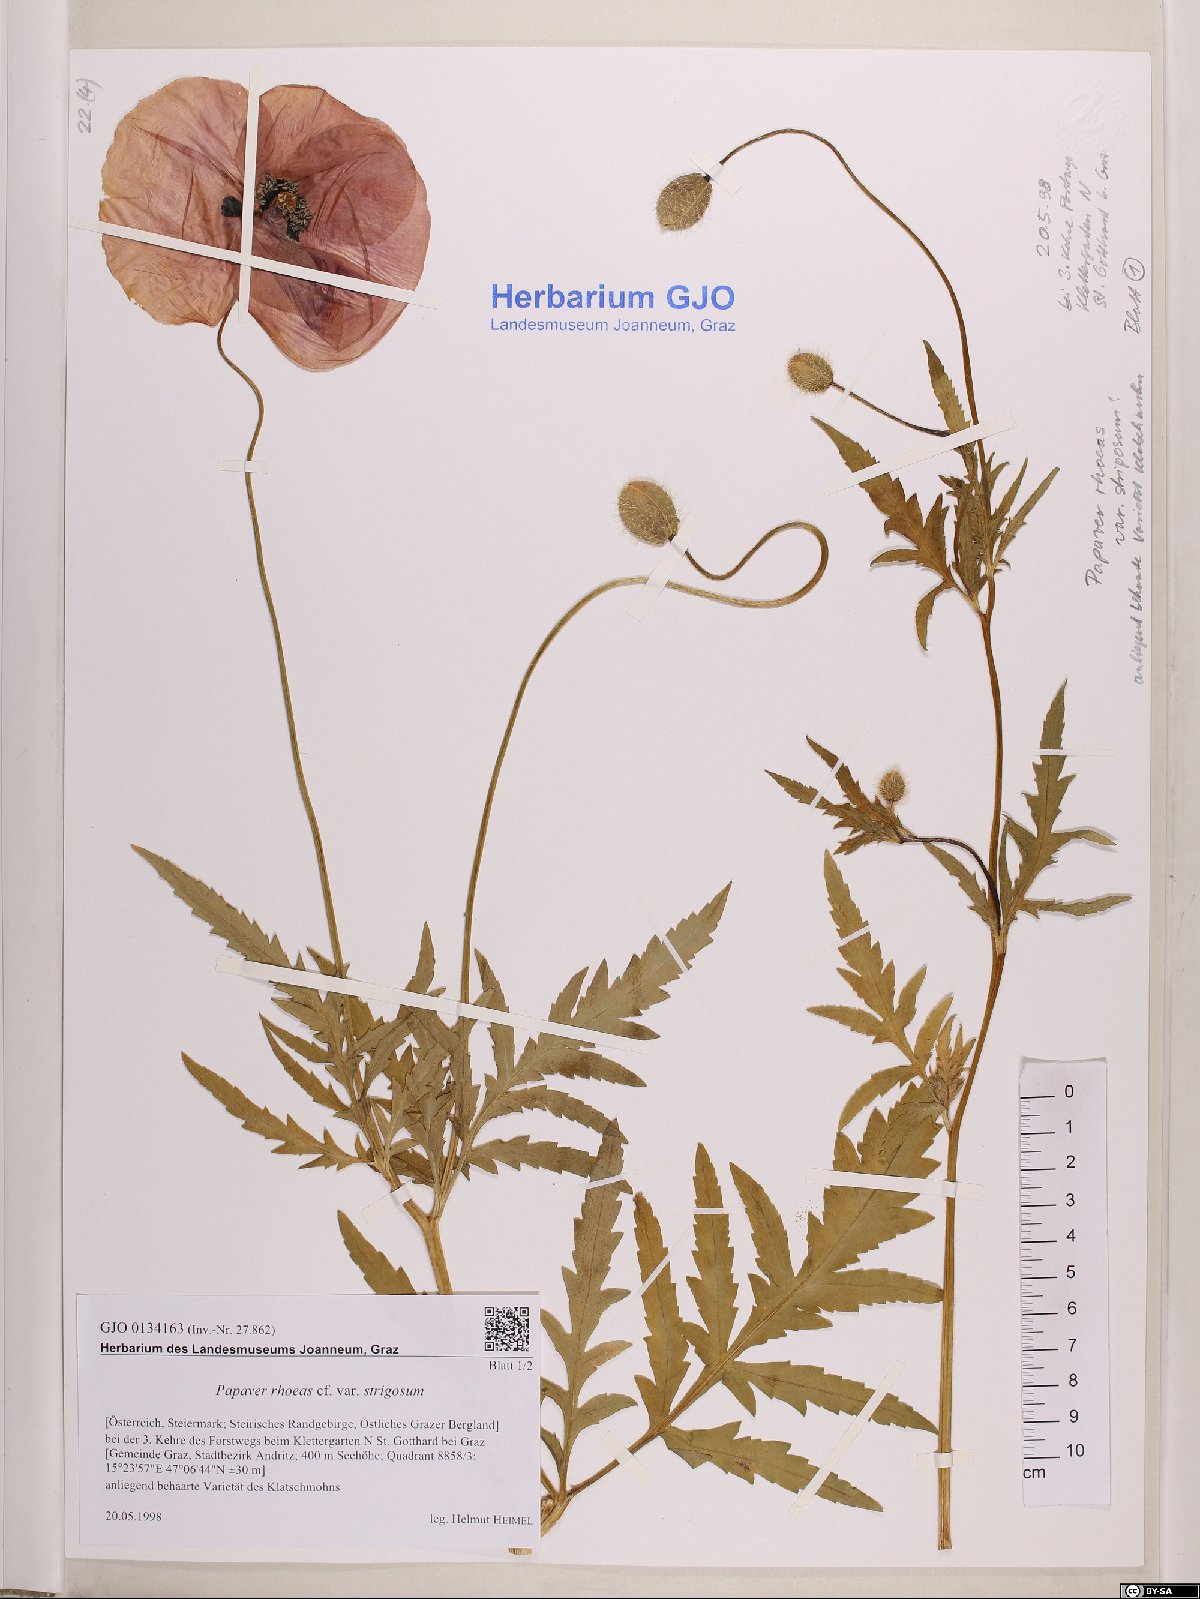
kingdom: Plantae
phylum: Tracheophyta
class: Magnoliopsida
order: Ranunculales
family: Papaveraceae
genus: Papaver
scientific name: Papaver rhoeas
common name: Corn poppy
